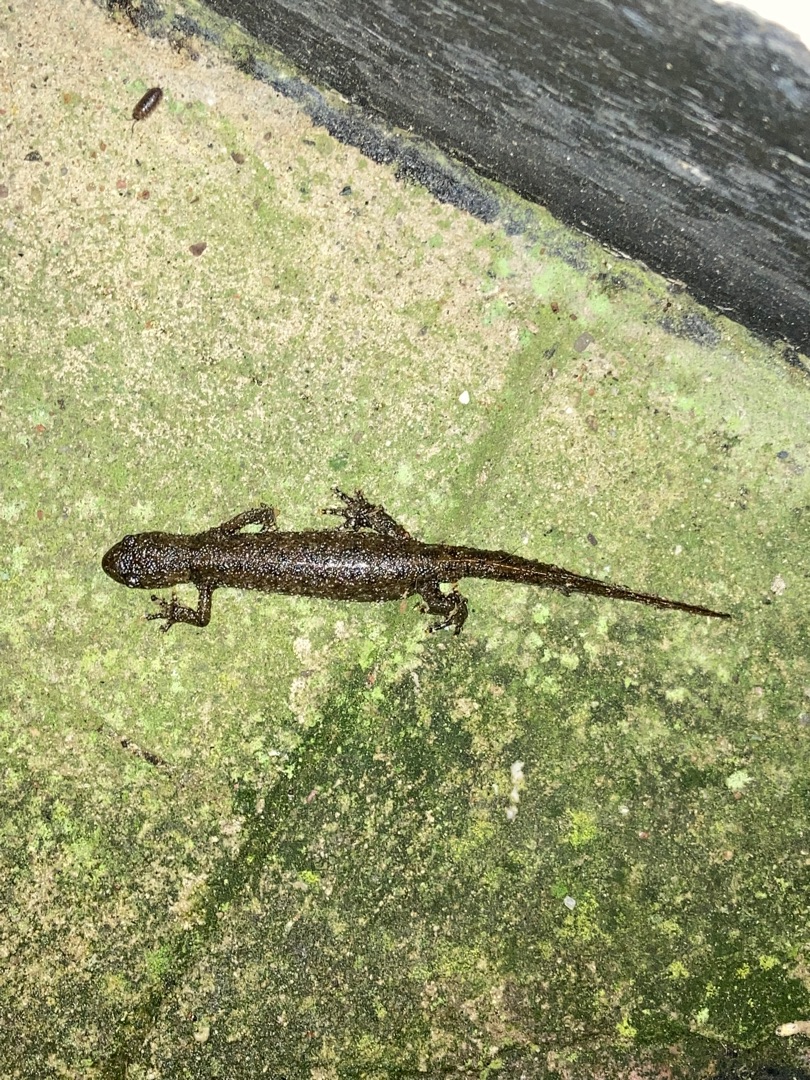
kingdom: Animalia
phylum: Chordata
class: Amphibia
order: Caudata
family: Salamandridae
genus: Triturus
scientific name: Triturus cristatus
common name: Stor vandsalamander
